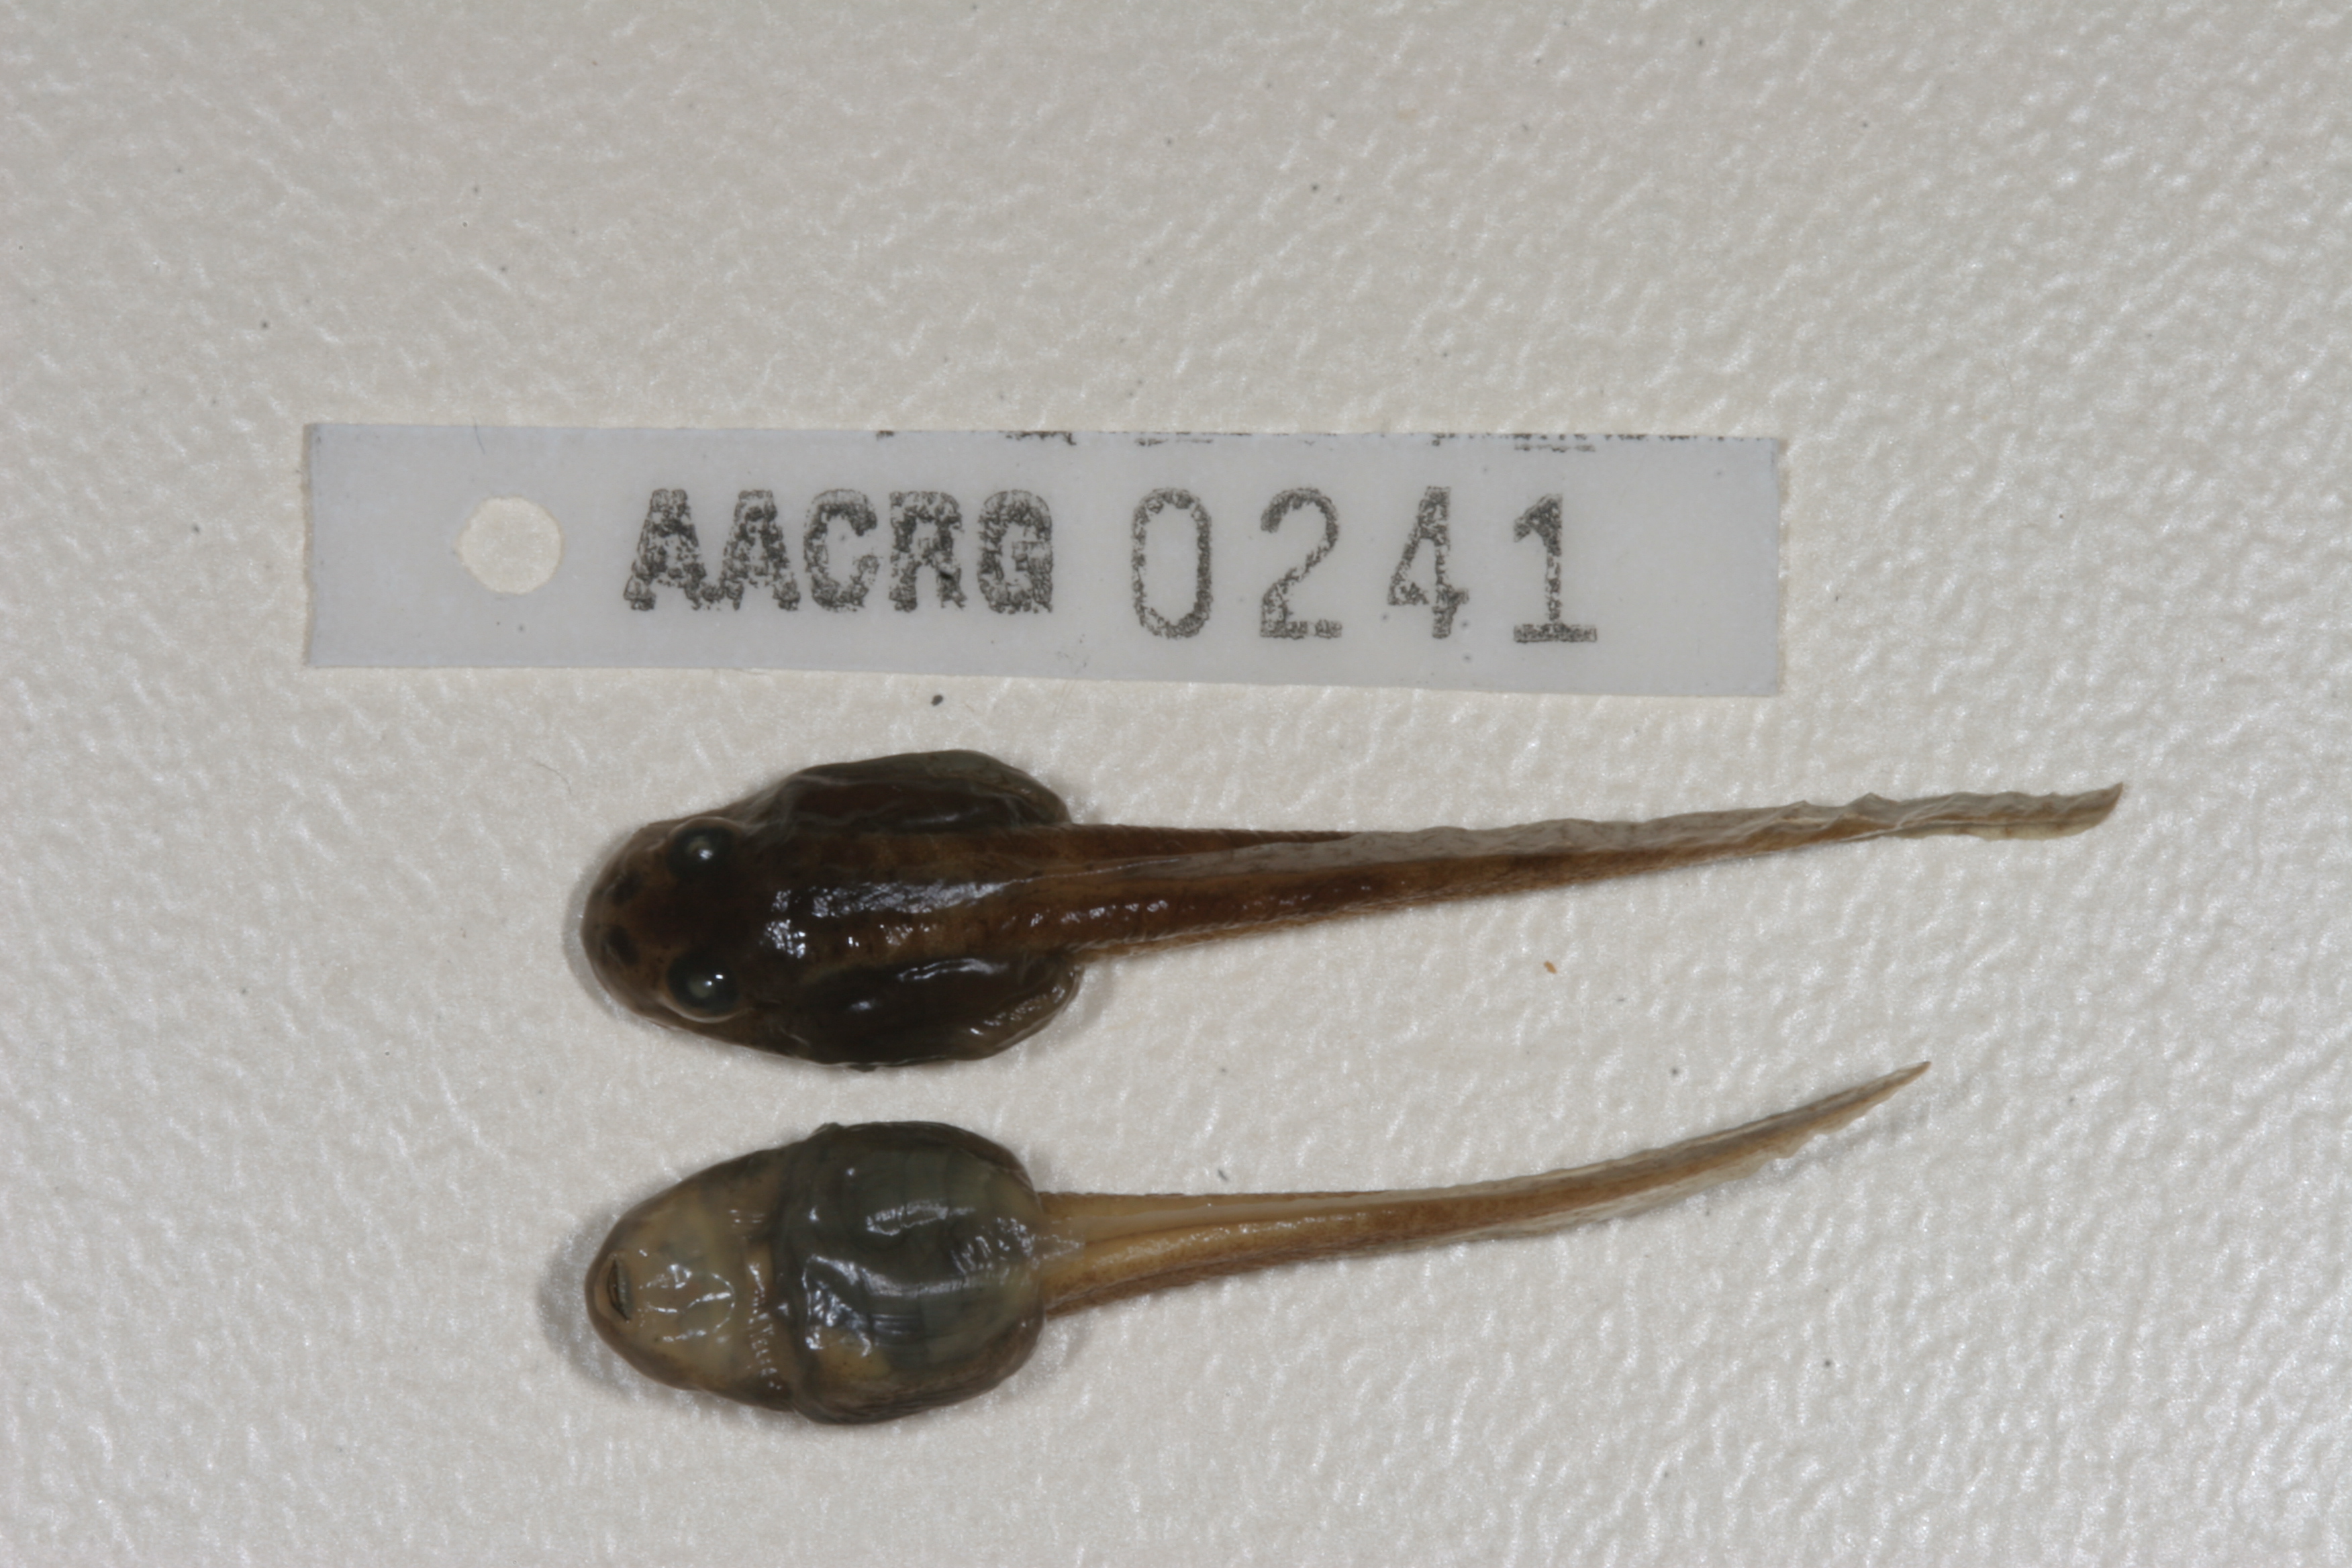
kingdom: Animalia
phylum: Chordata
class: Amphibia
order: Anura
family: Pyxicephalidae
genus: Amietia
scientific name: Amietia angolensis
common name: Dusky-throated frog
